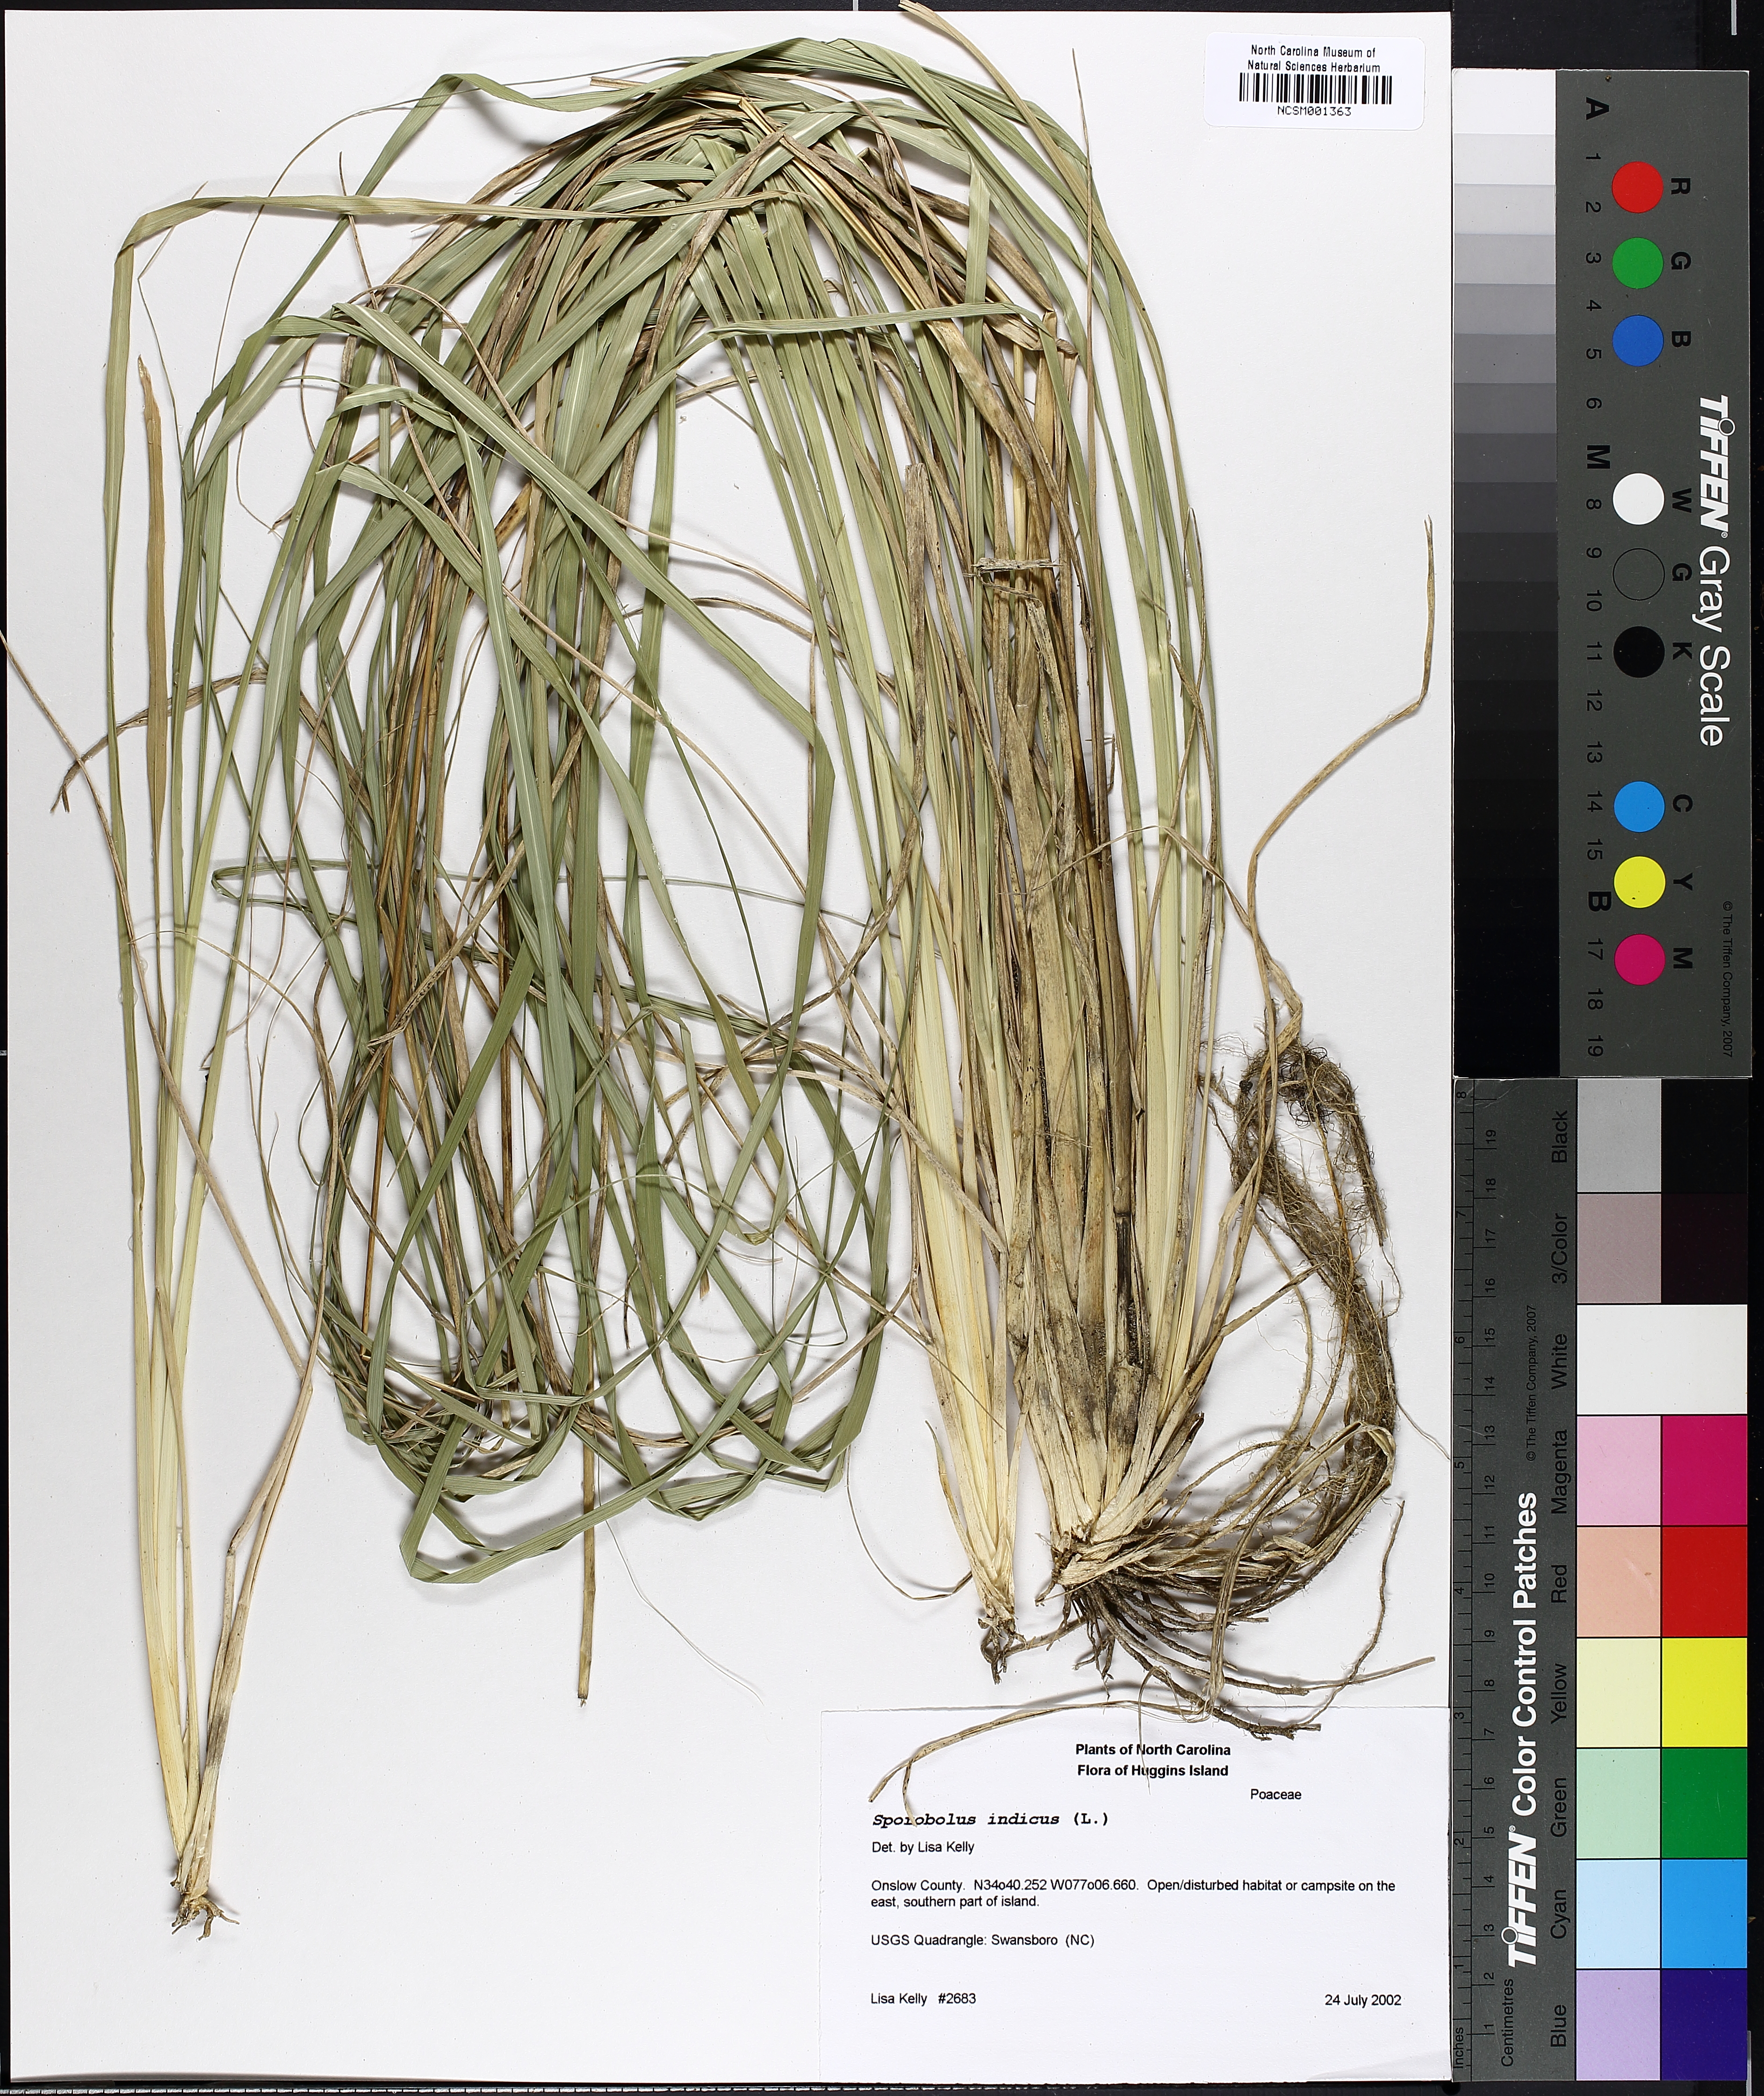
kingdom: Plantae
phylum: Tracheophyta
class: Liliopsida
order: Poales
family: Poaceae
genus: Sporobolus
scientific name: Sporobolus indicus
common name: Smut grass
